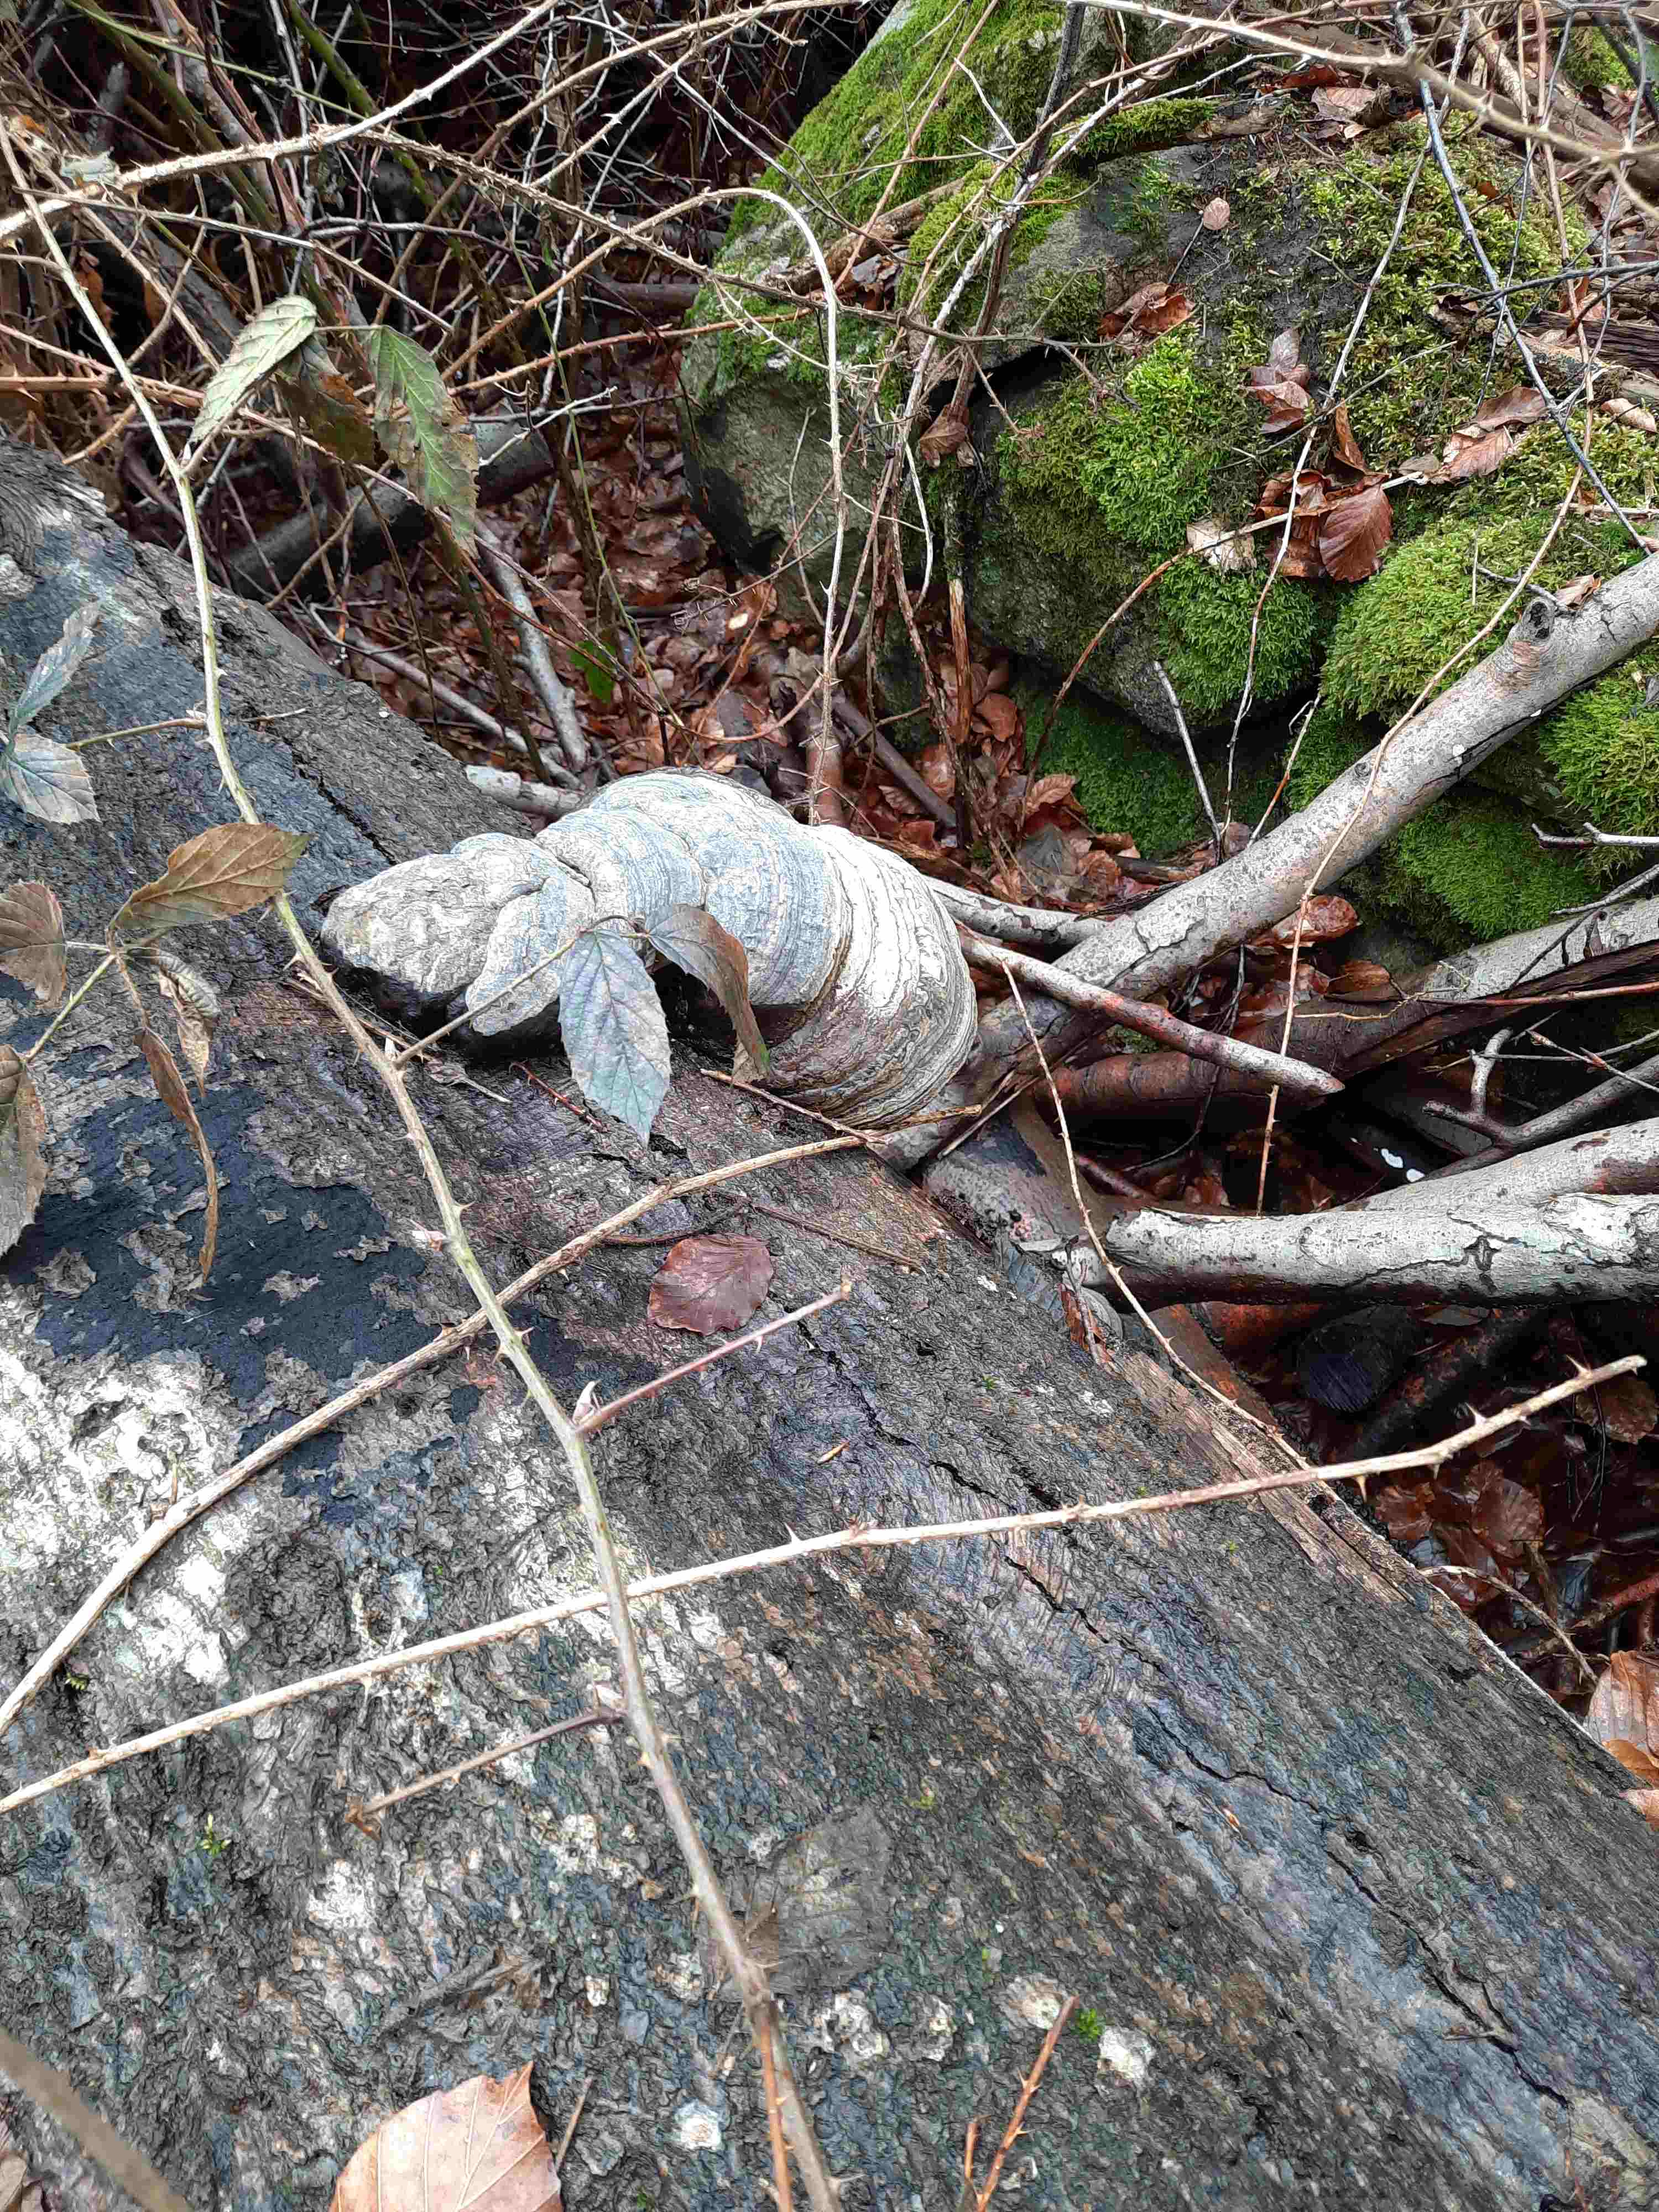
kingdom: Fungi
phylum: Basidiomycota
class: Agaricomycetes
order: Polyporales
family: Polyporaceae
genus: Fomes
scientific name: Fomes fomentarius
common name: tøndersvamp
